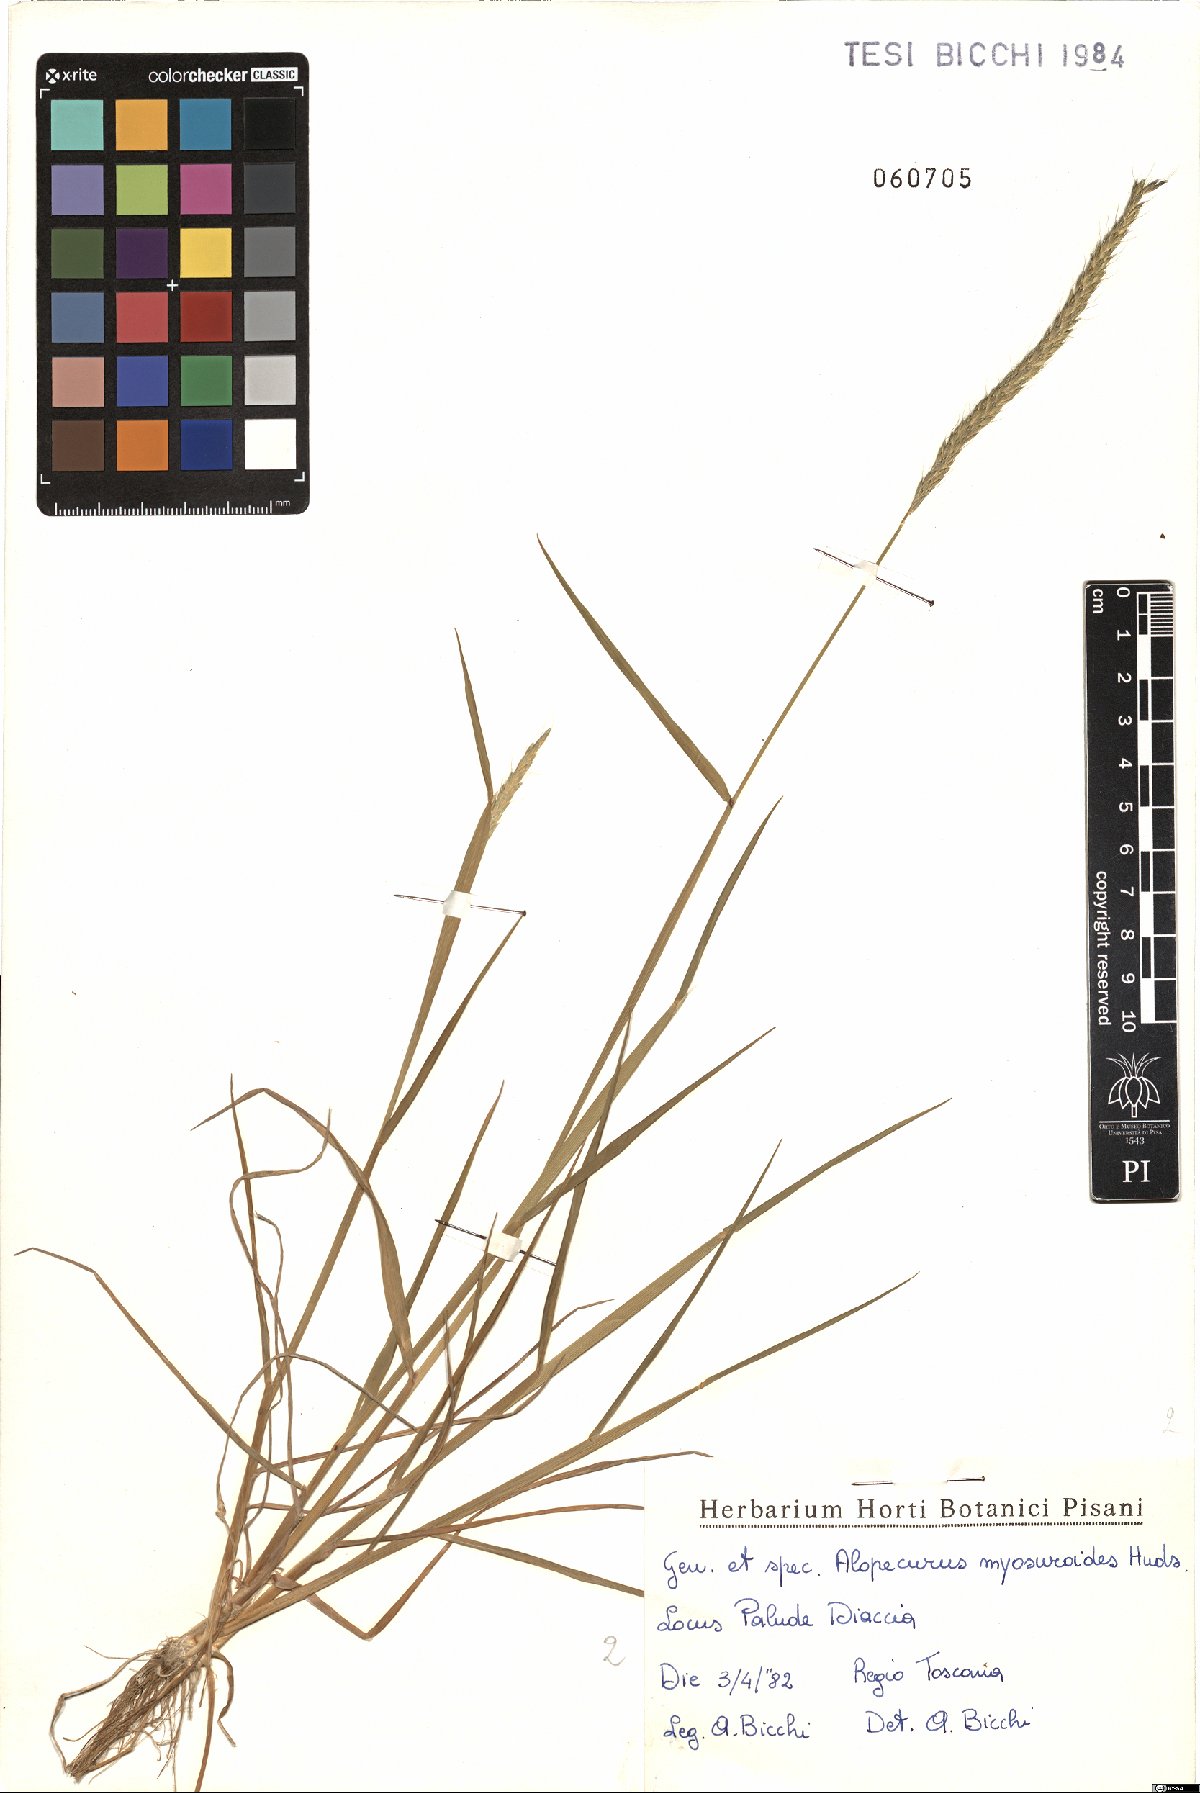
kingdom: Plantae
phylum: Tracheophyta
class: Liliopsida
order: Poales
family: Poaceae
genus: Alopecurus
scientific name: Alopecurus myosuroides
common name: Black-grass
